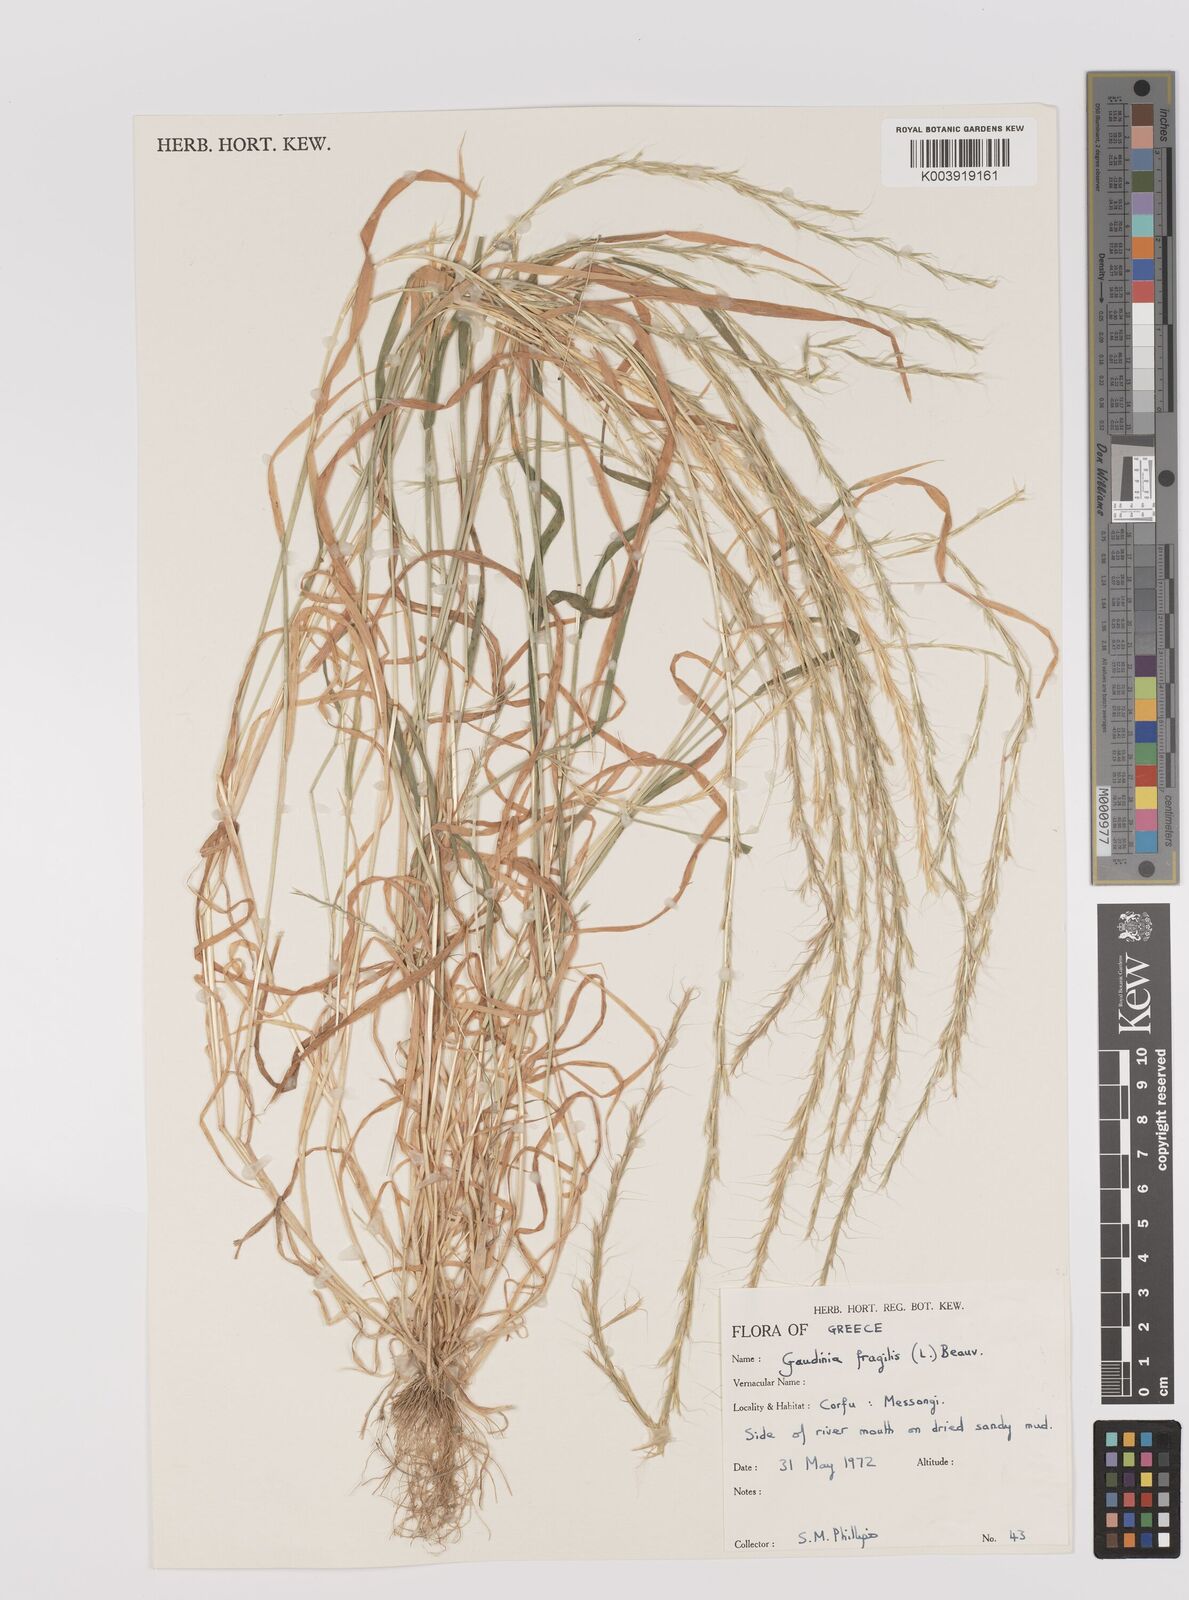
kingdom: Plantae
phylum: Tracheophyta
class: Liliopsida
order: Poales
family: Poaceae
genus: Gaudinia
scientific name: Gaudinia fragilis
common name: French oat-grass
